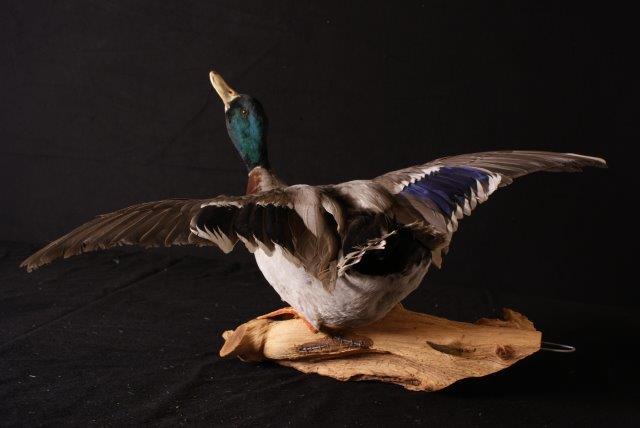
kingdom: Animalia
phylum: Chordata
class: Aves
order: Anseriformes
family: Anatidae
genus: Anas
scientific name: Anas platyrhynchos
